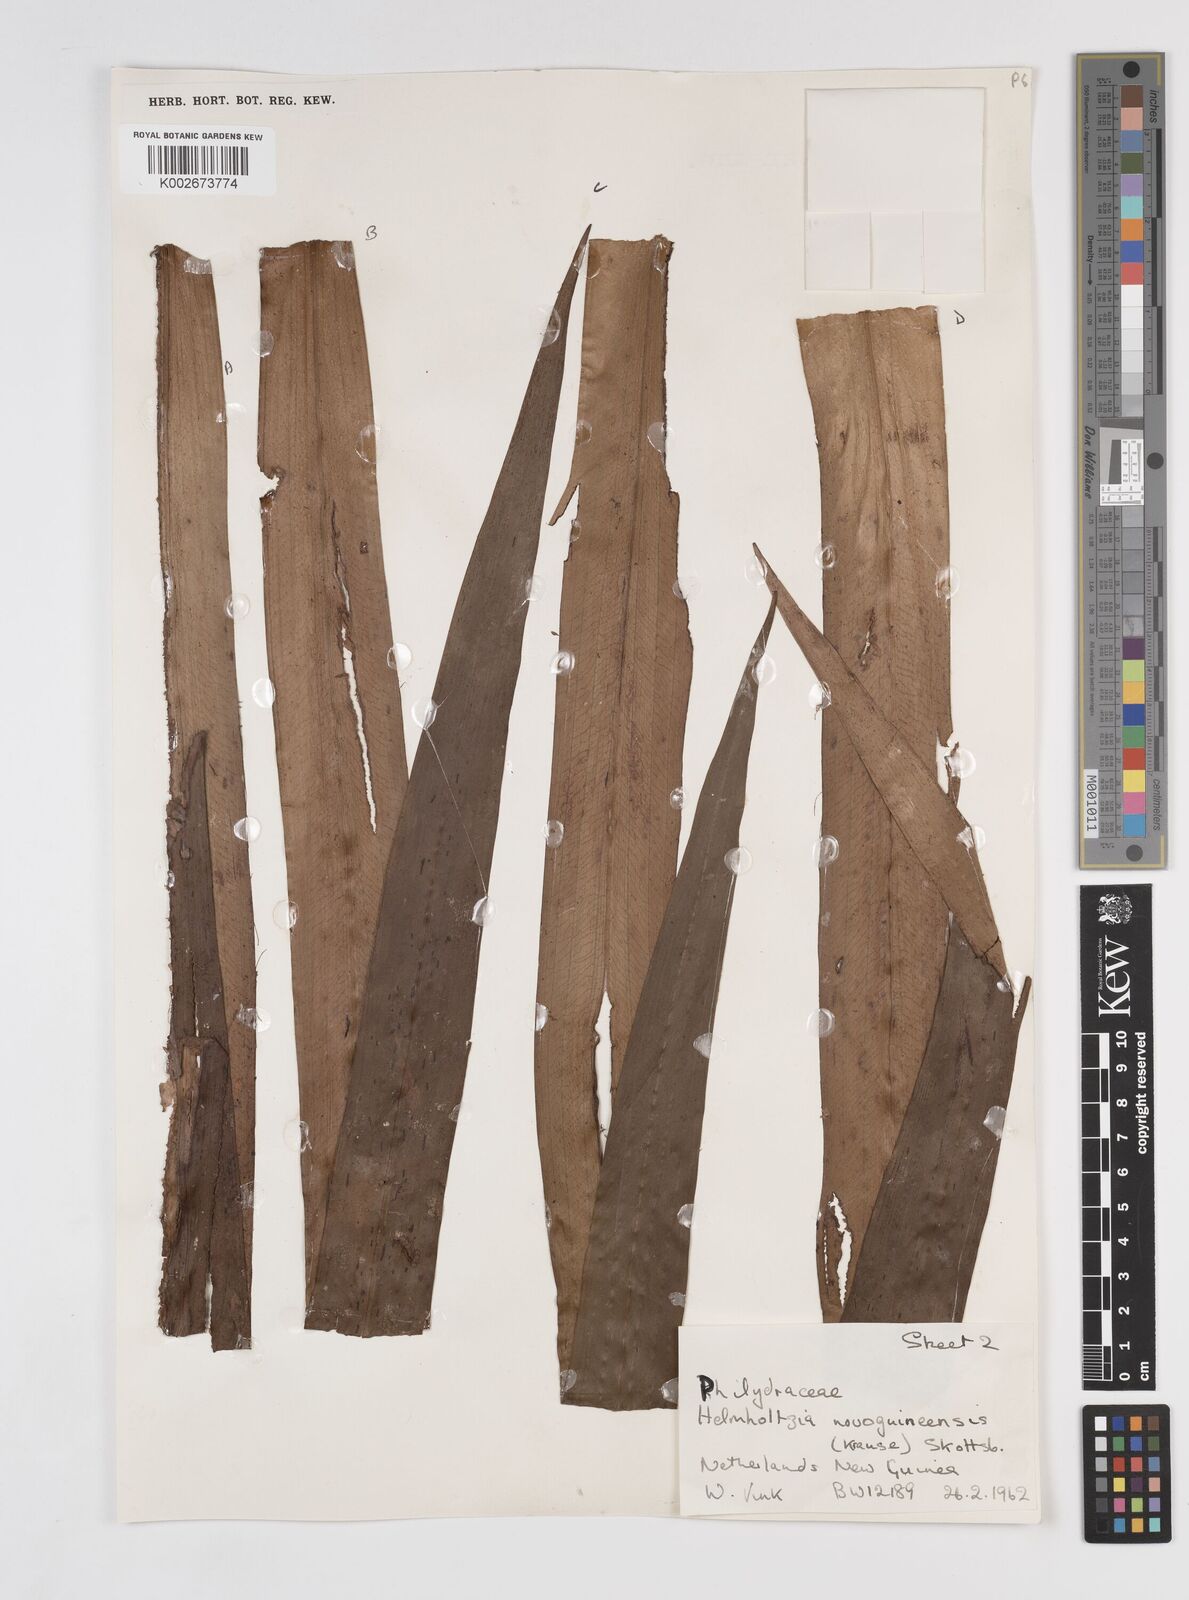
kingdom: Plantae
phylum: Tracheophyta
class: Liliopsida
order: Commelinales
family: Philydraceae
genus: Helmholtzia
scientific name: Helmholtzia novoguineensis
